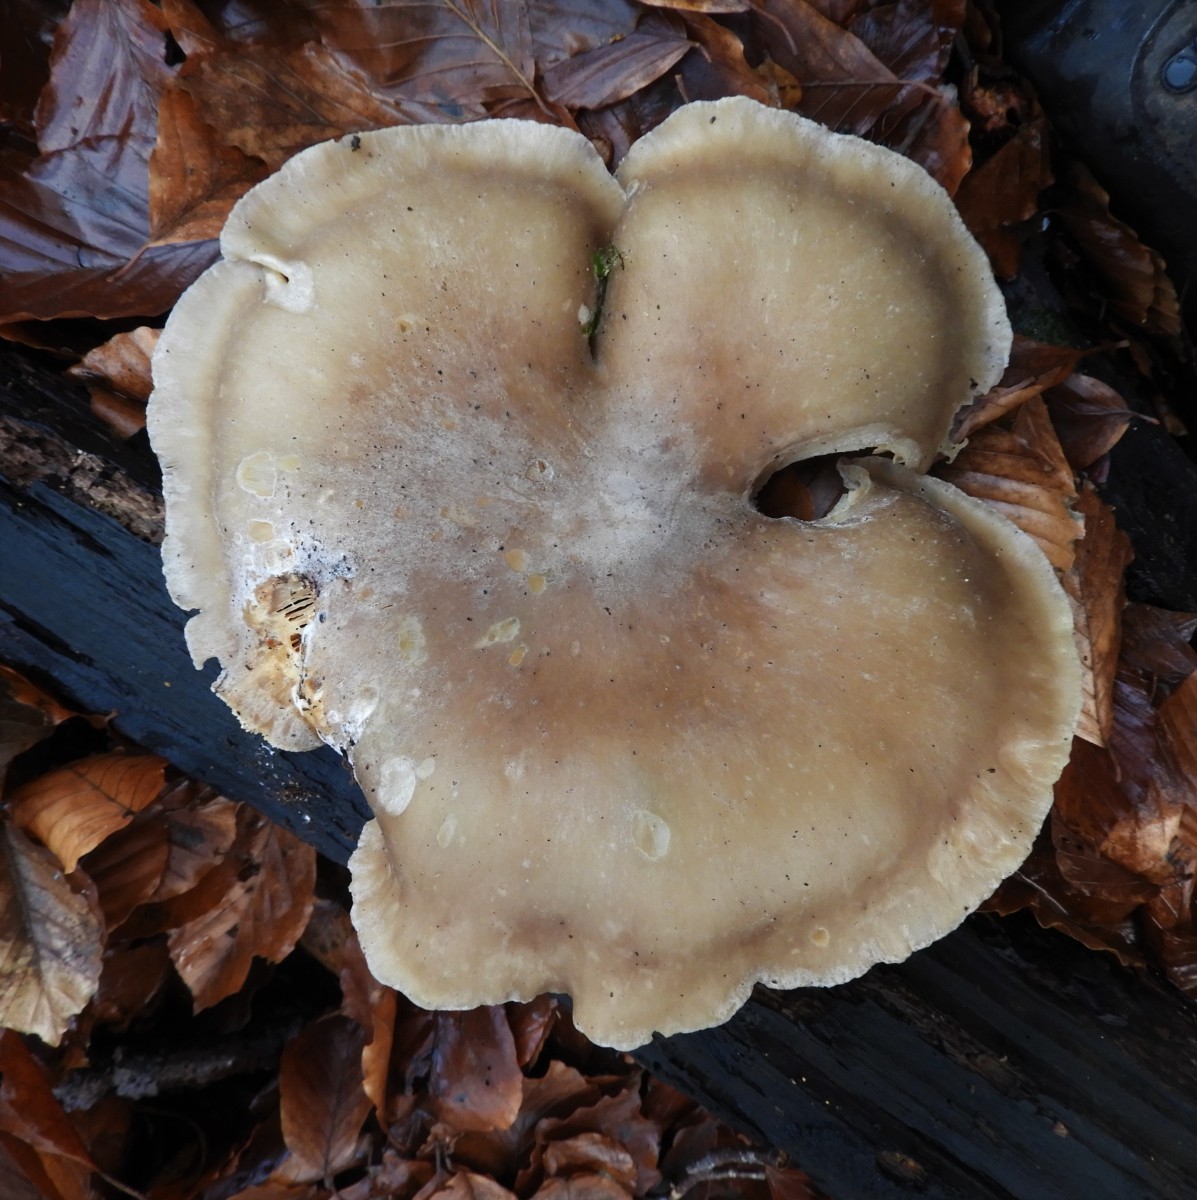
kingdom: Fungi
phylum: Basidiomycota
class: Agaricomycetes
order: Agaricales
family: Tricholomataceae
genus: Clitocybe
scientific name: Clitocybe nebularis
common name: tåge-tragthat
